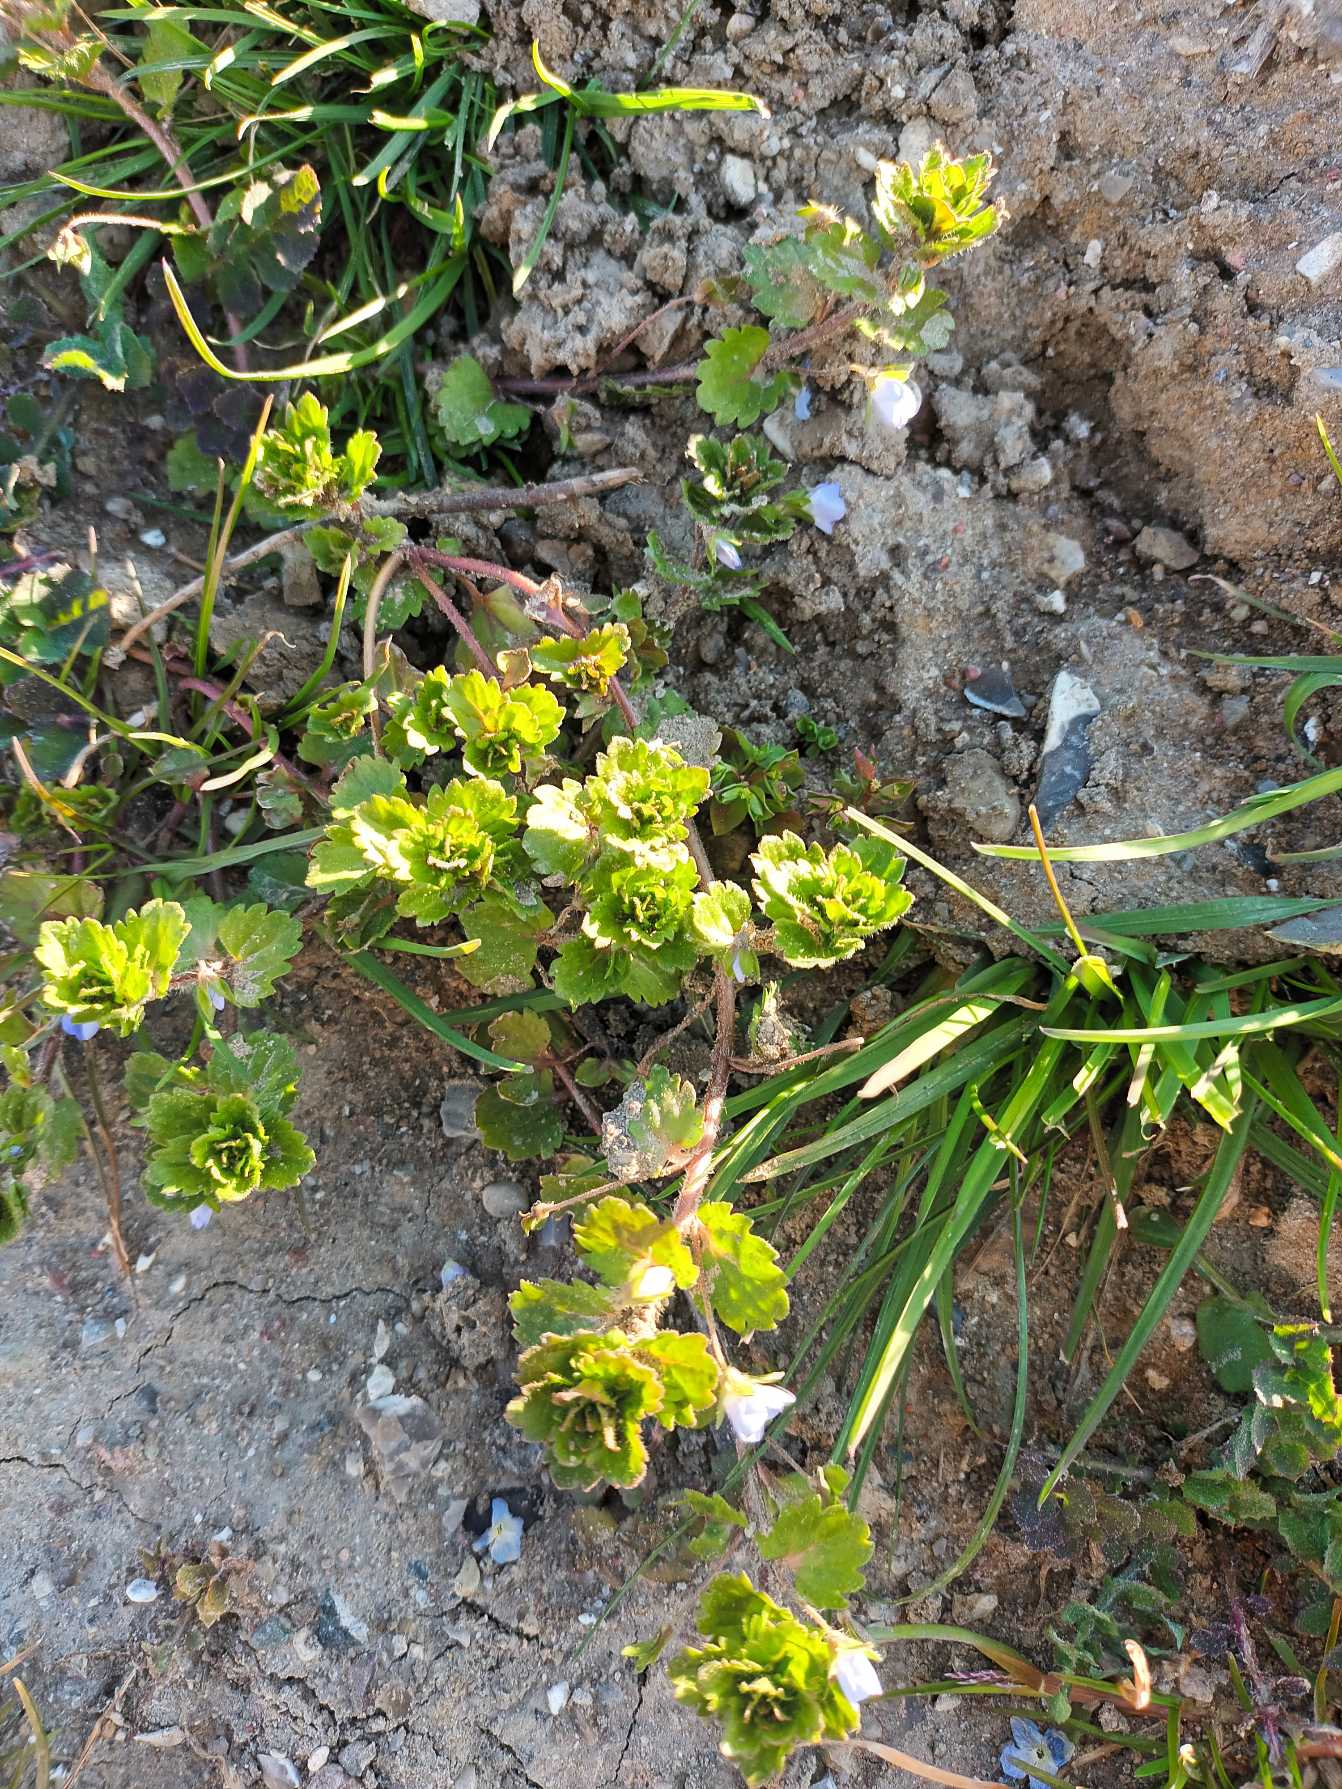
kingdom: Plantae
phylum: Tracheophyta
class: Magnoliopsida
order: Lamiales
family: Plantaginaceae
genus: Veronica
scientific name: Veronica persica
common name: Storkronet ærenpris
